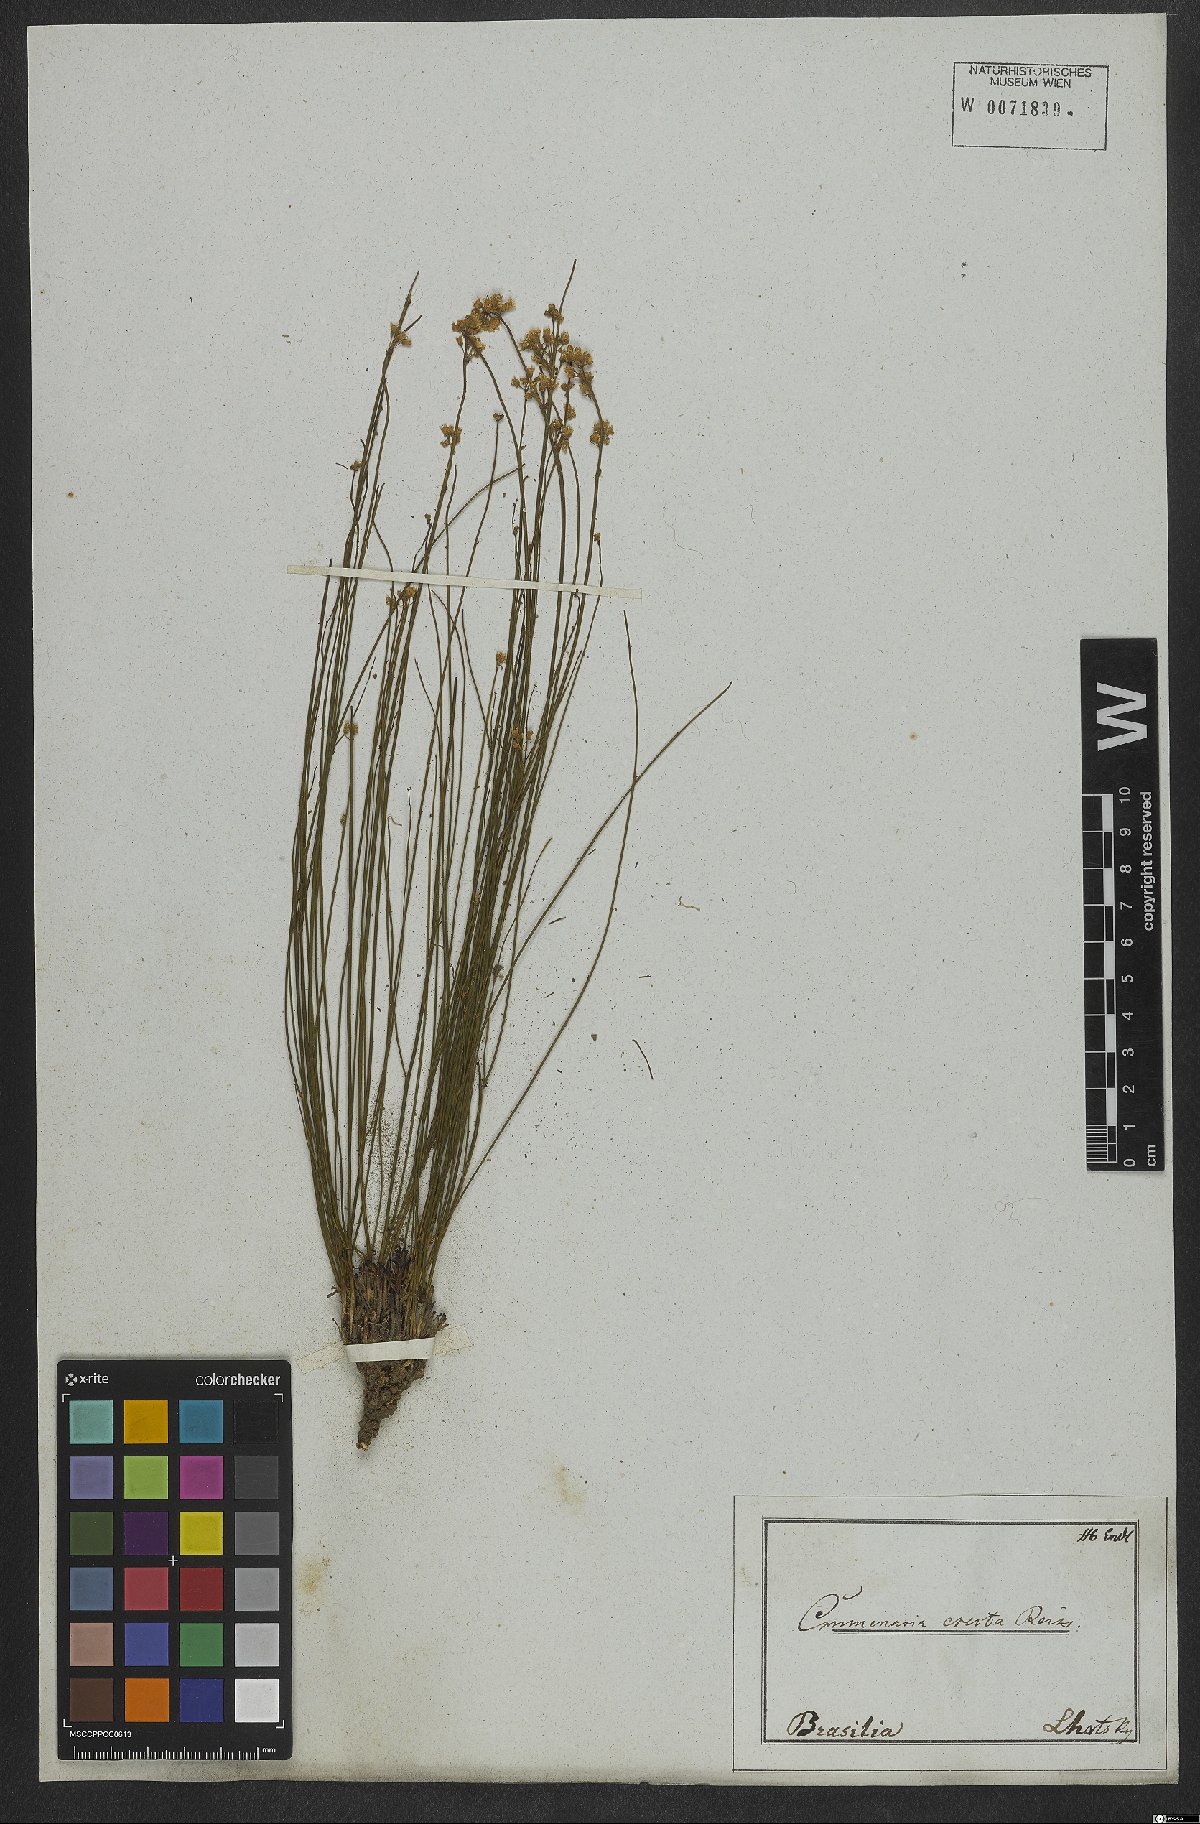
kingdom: Plantae
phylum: Tracheophyta
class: Magnoliopsida
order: Rosales
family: Rhamnaceae
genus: Crumenaria
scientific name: Crumenaria erecta
